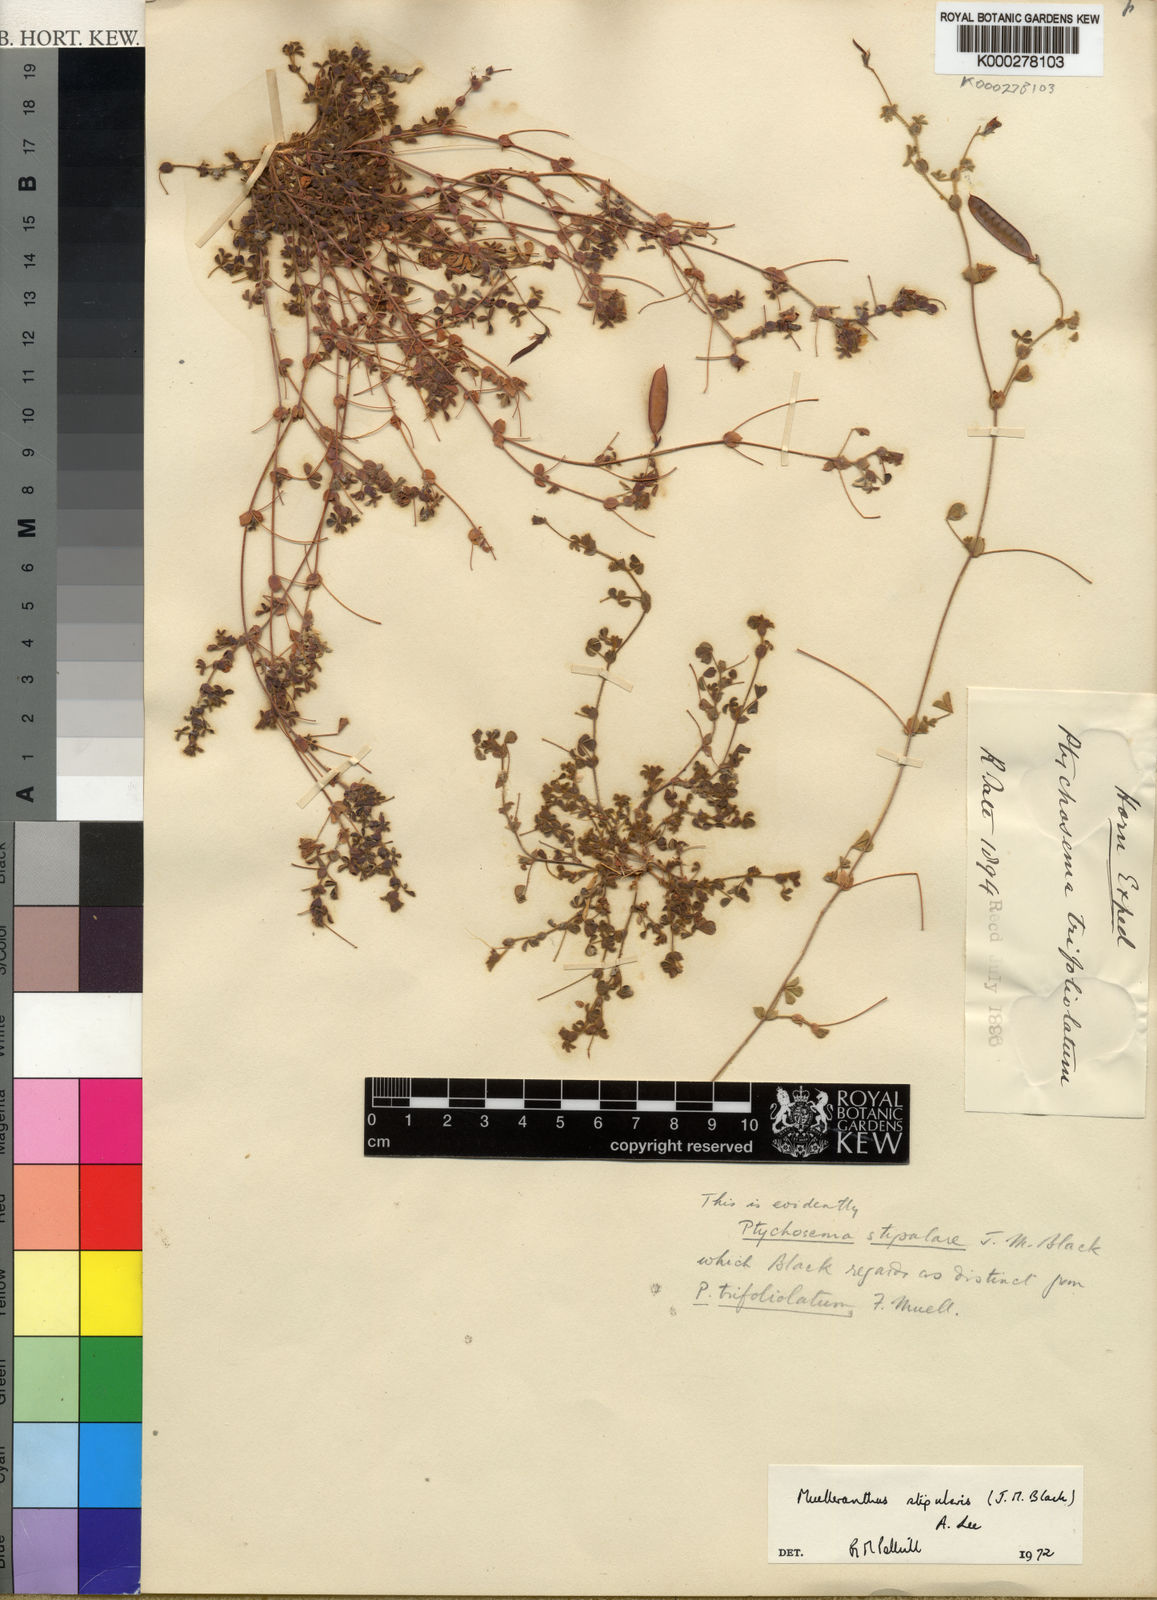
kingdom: Plantae
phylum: Tracheophyta
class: Magnoliopsida
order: Fabales
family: Fabaceae
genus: Muelleranthus
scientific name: Muelleranthus stipularis
